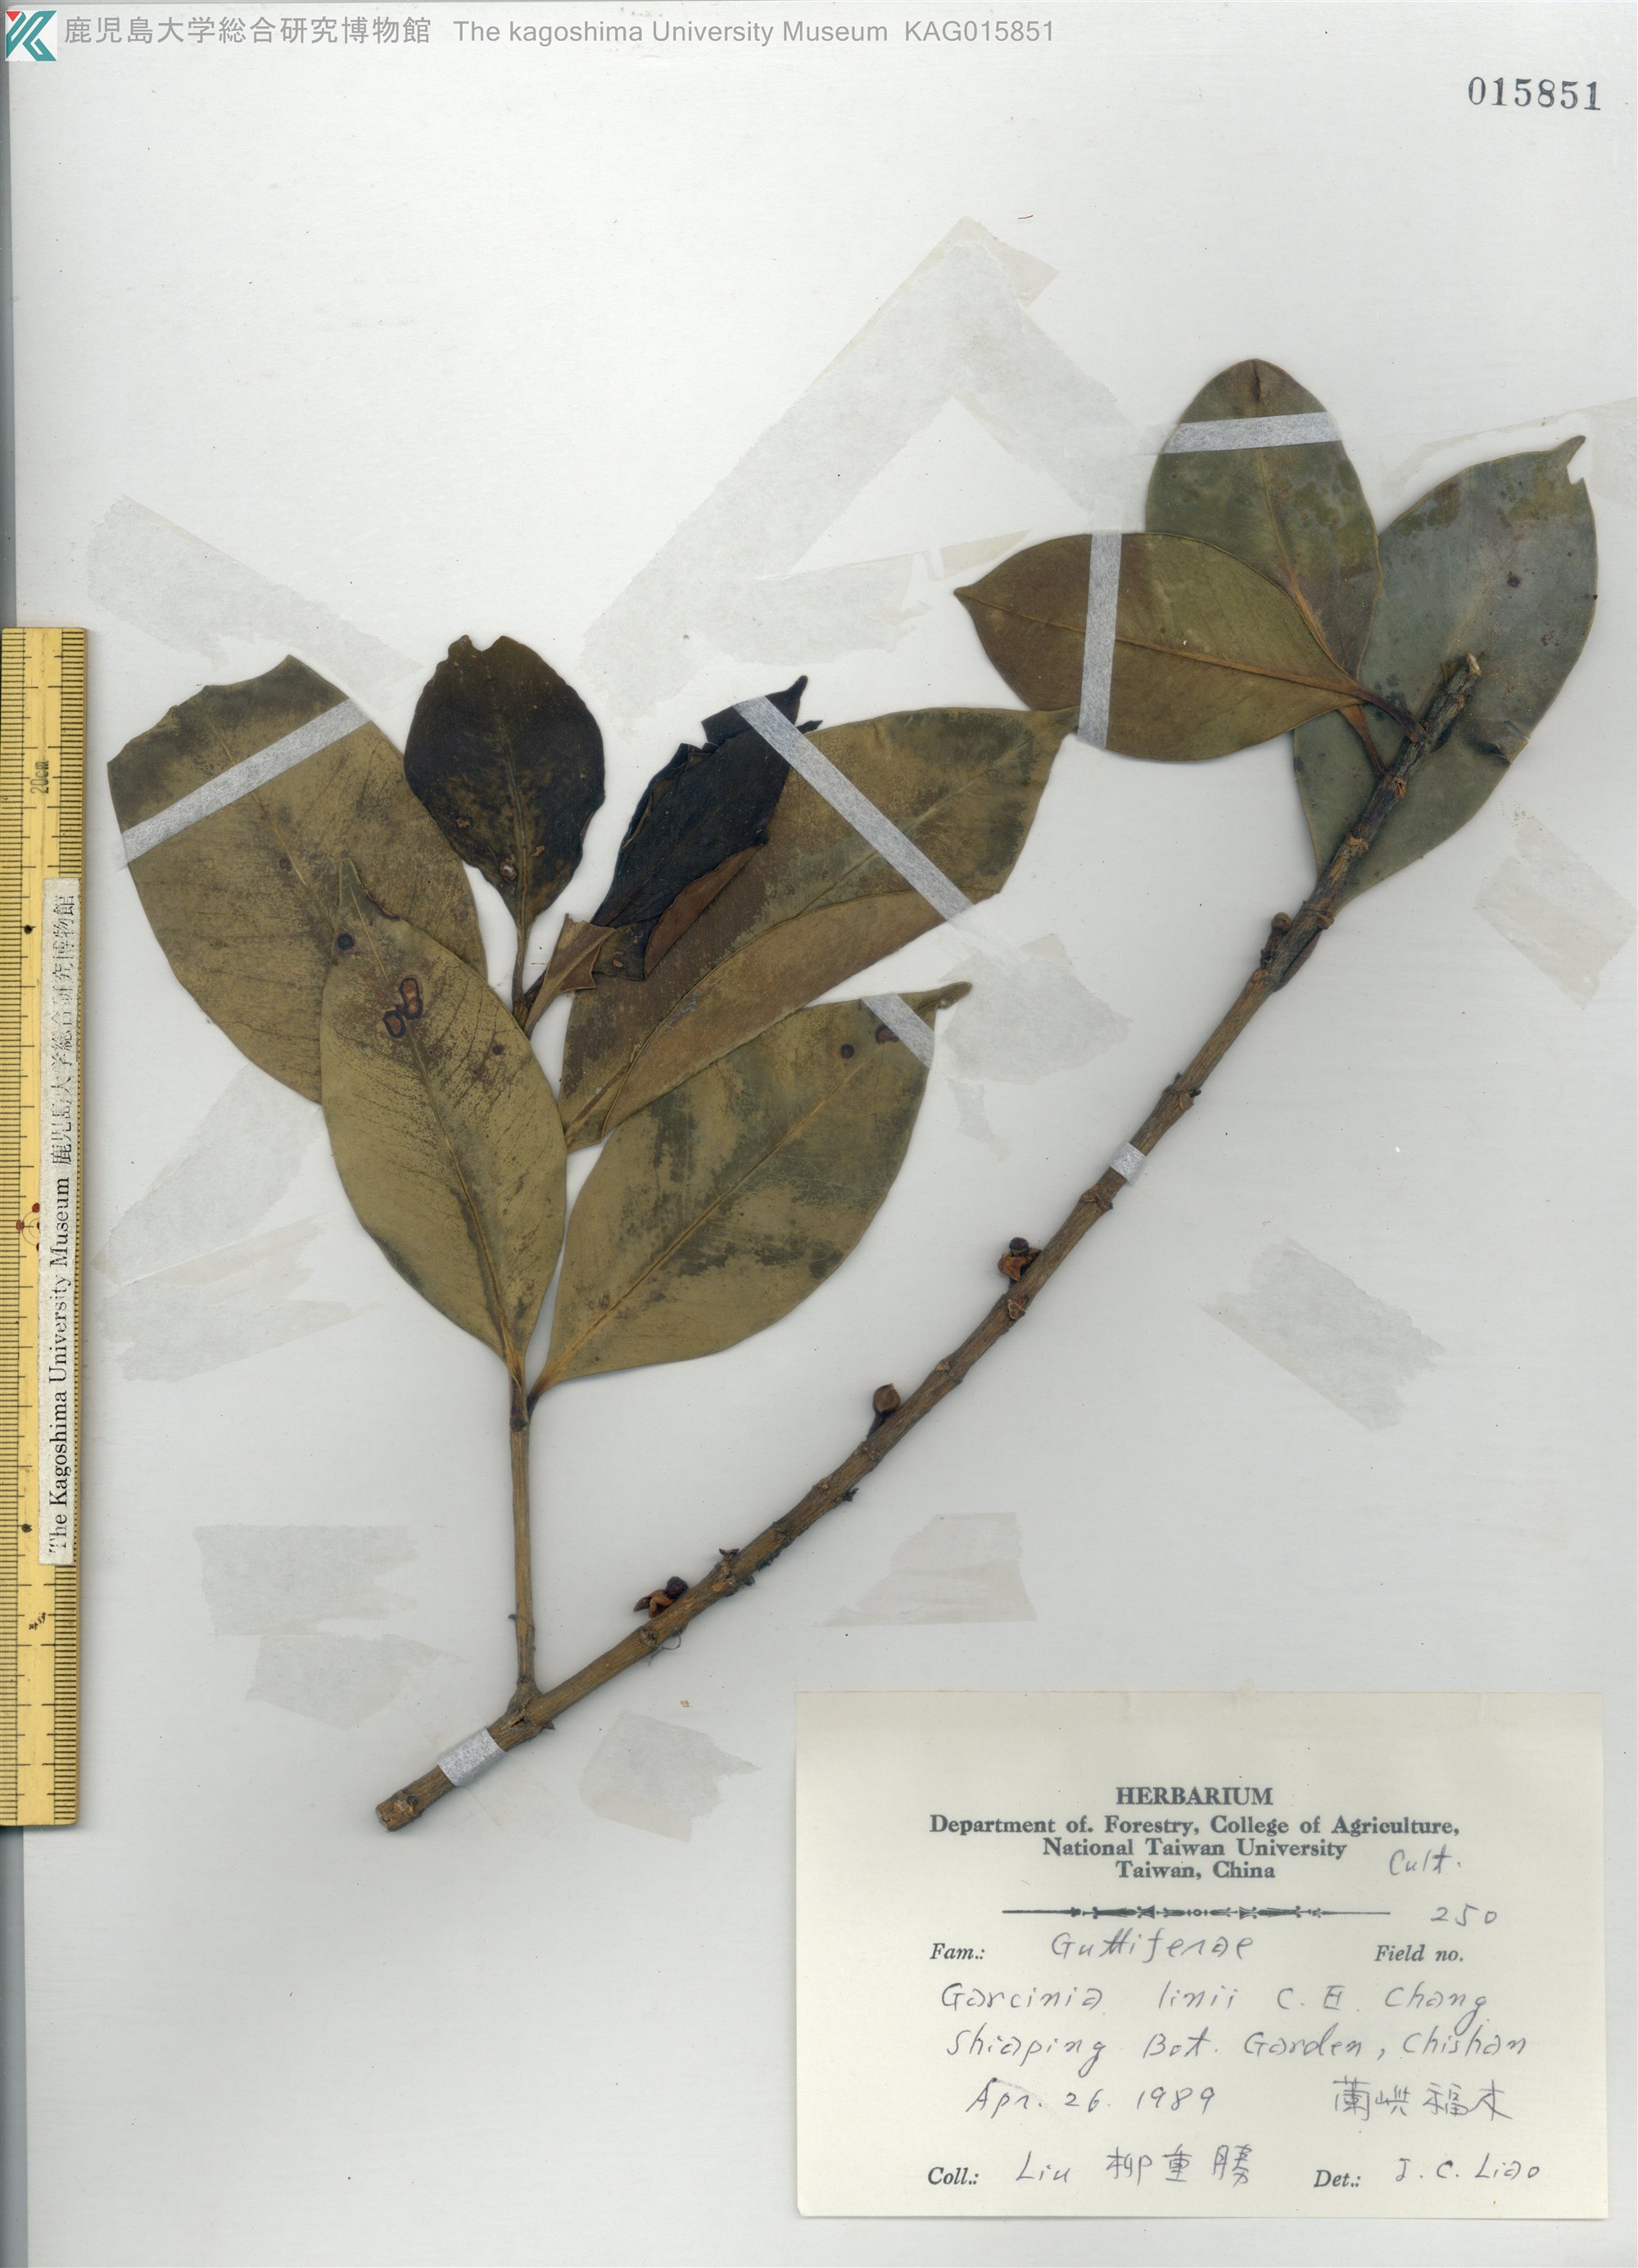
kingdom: Plantae
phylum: Tracheophyta
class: Magnoliopsida
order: Malpighiales
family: Clusiaceae
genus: Garcinia
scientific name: Garcinia linii
